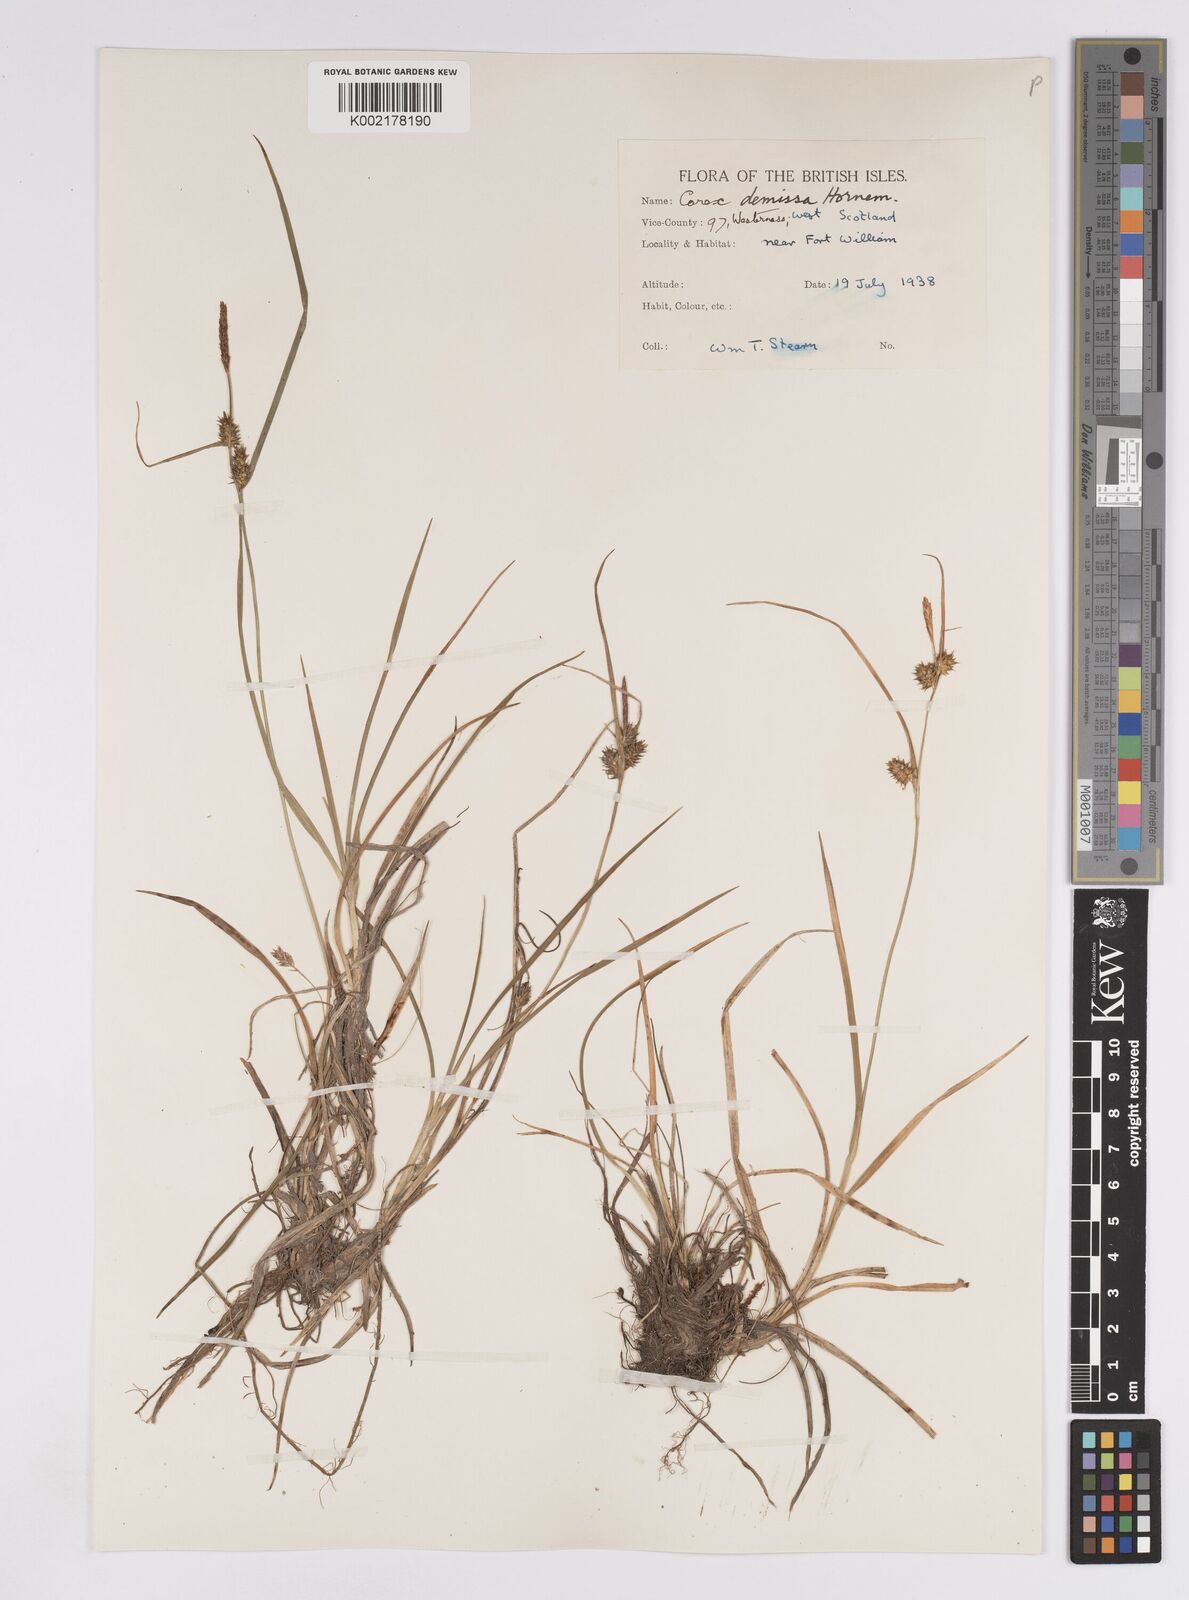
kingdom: Plantae
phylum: Tracheophyta
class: Liliopsida
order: Poales
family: Cyperaceae
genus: Carex
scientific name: Carex demissa
